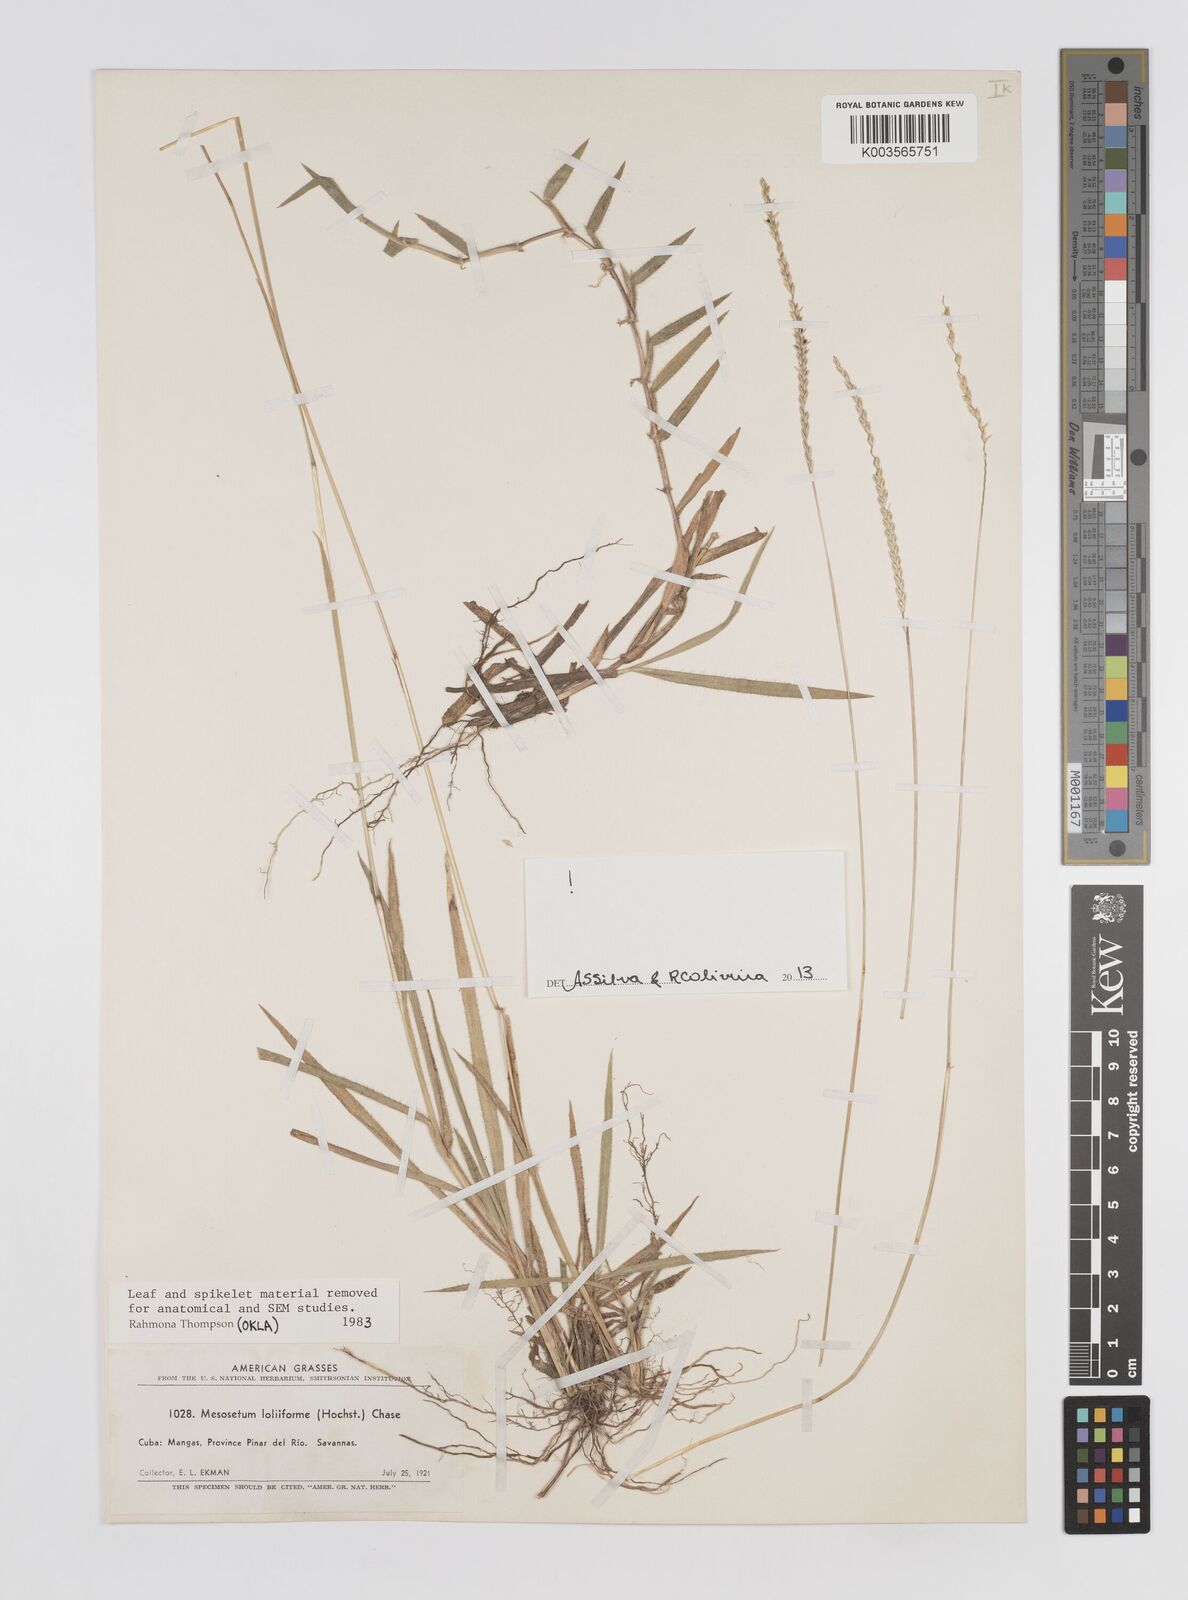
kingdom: Plantae
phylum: Tracheophyta
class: Liliopsida
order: Poales
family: Poaceae
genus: Mesosetum
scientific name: Mesosetum loliiforme
